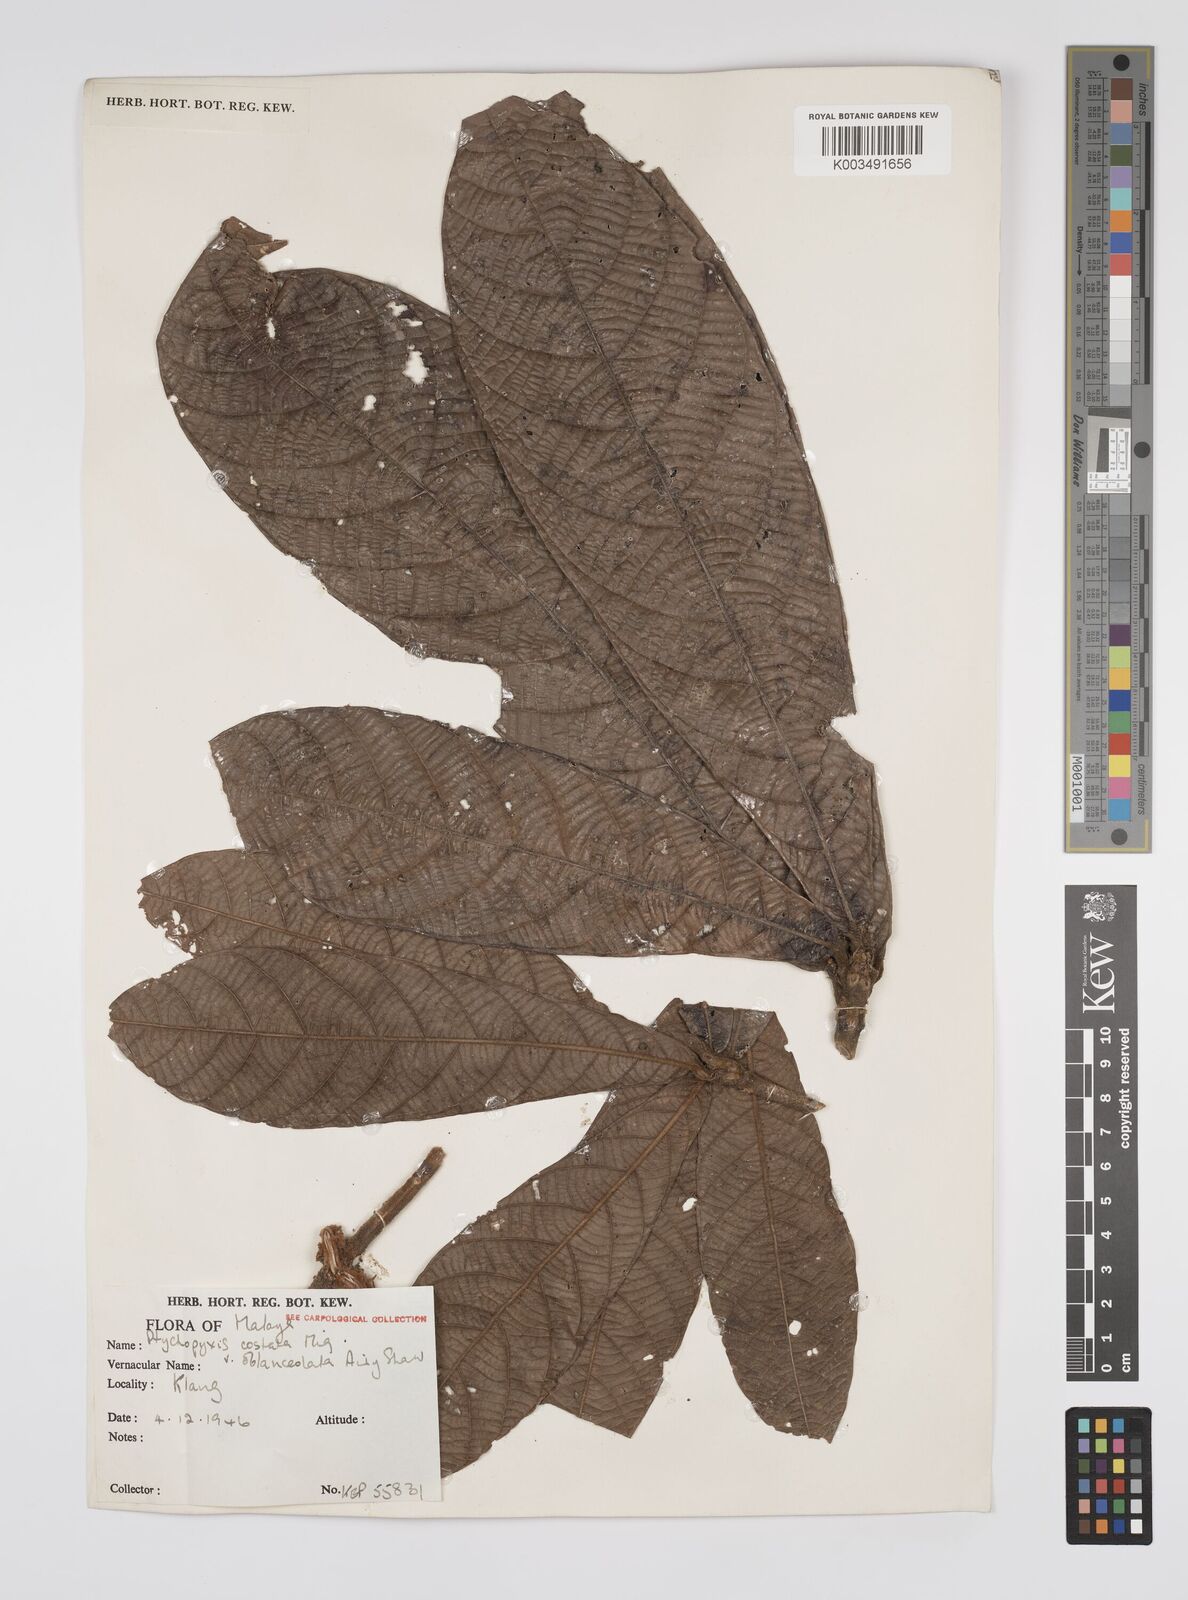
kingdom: Plantae
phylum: Tracheophyta
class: Magnoliopsida
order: Malpighiales
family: Euphorbiaceae
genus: Ptychopyxis
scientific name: Ptychopyxis costata
